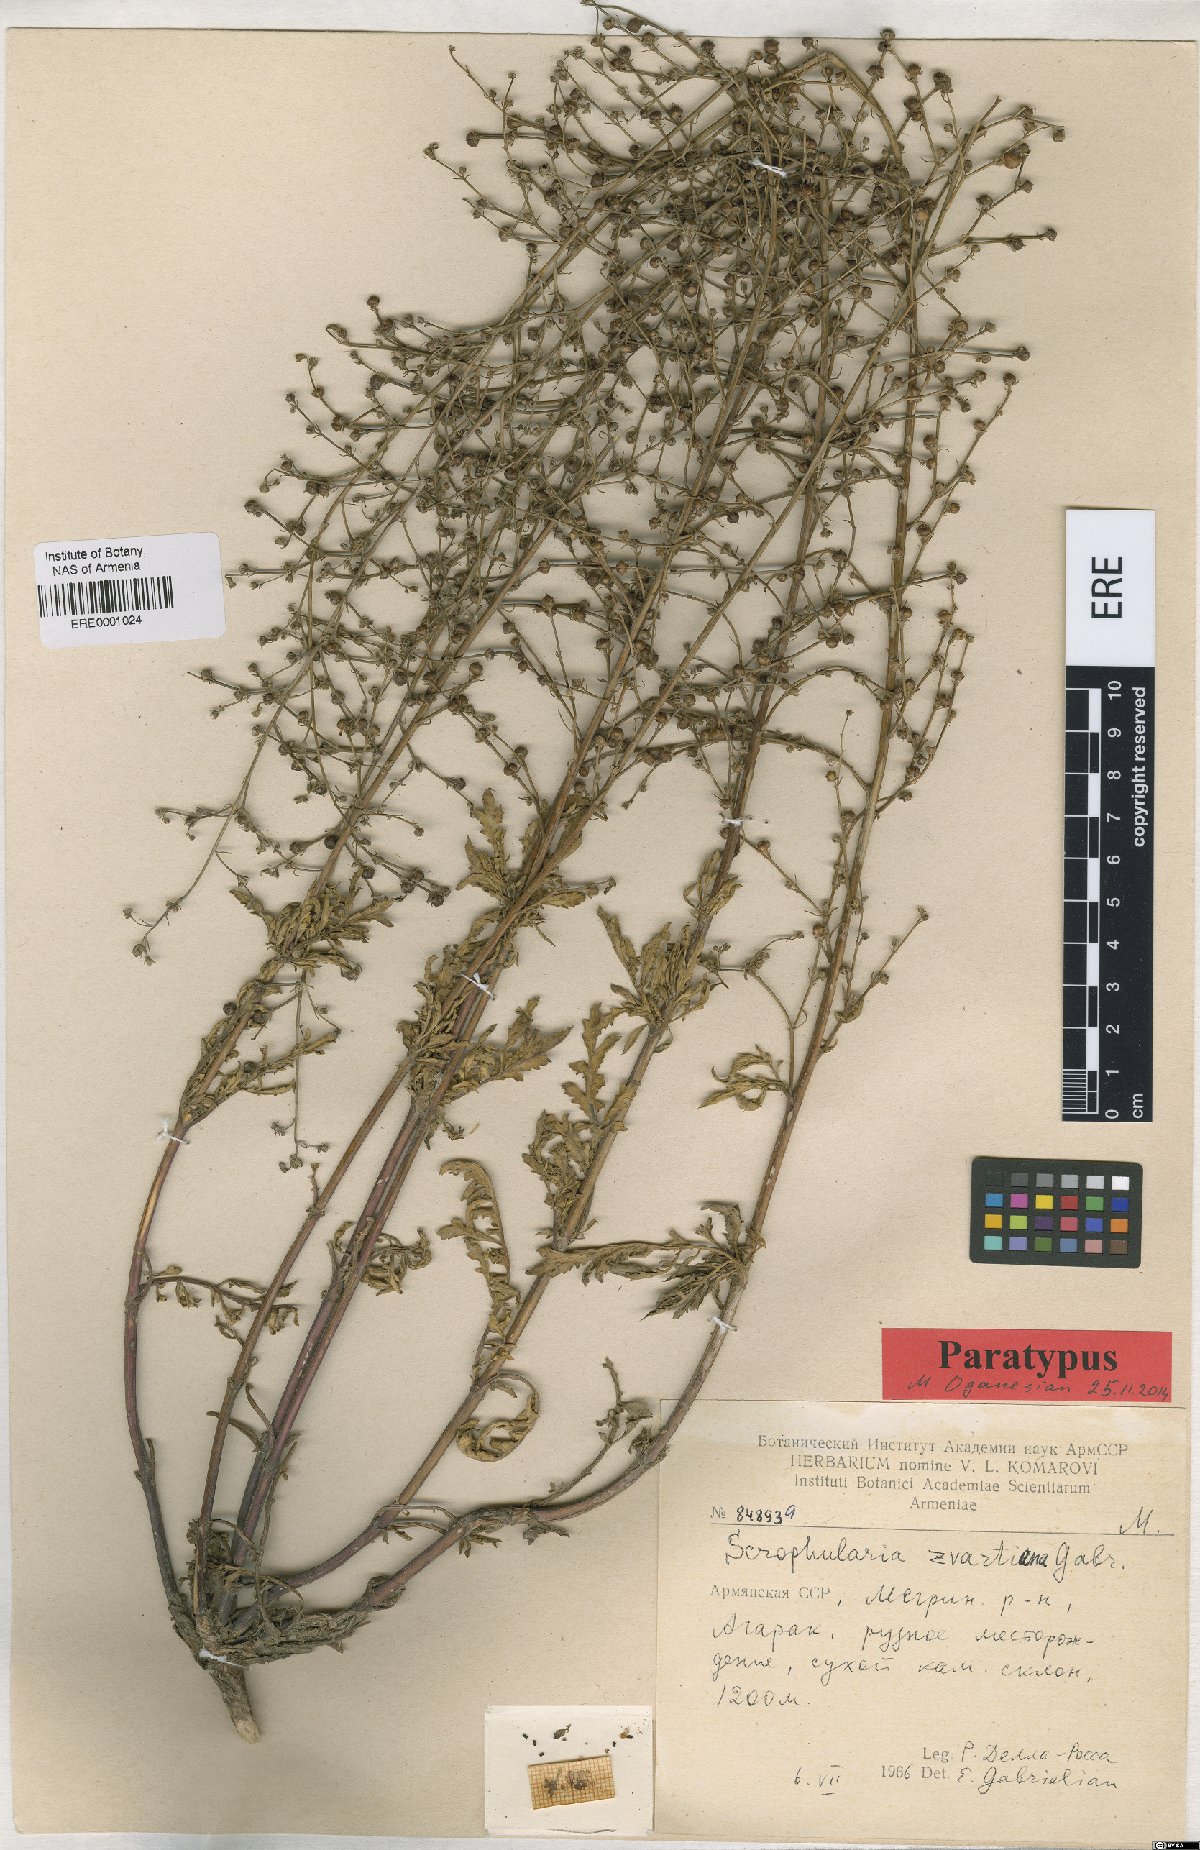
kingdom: Plantae
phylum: Tracheophyta
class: Magnoliopsida
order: Lamiales
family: Scrophulariaceae
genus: Scrophularia
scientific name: Scrophularia zvartiana
